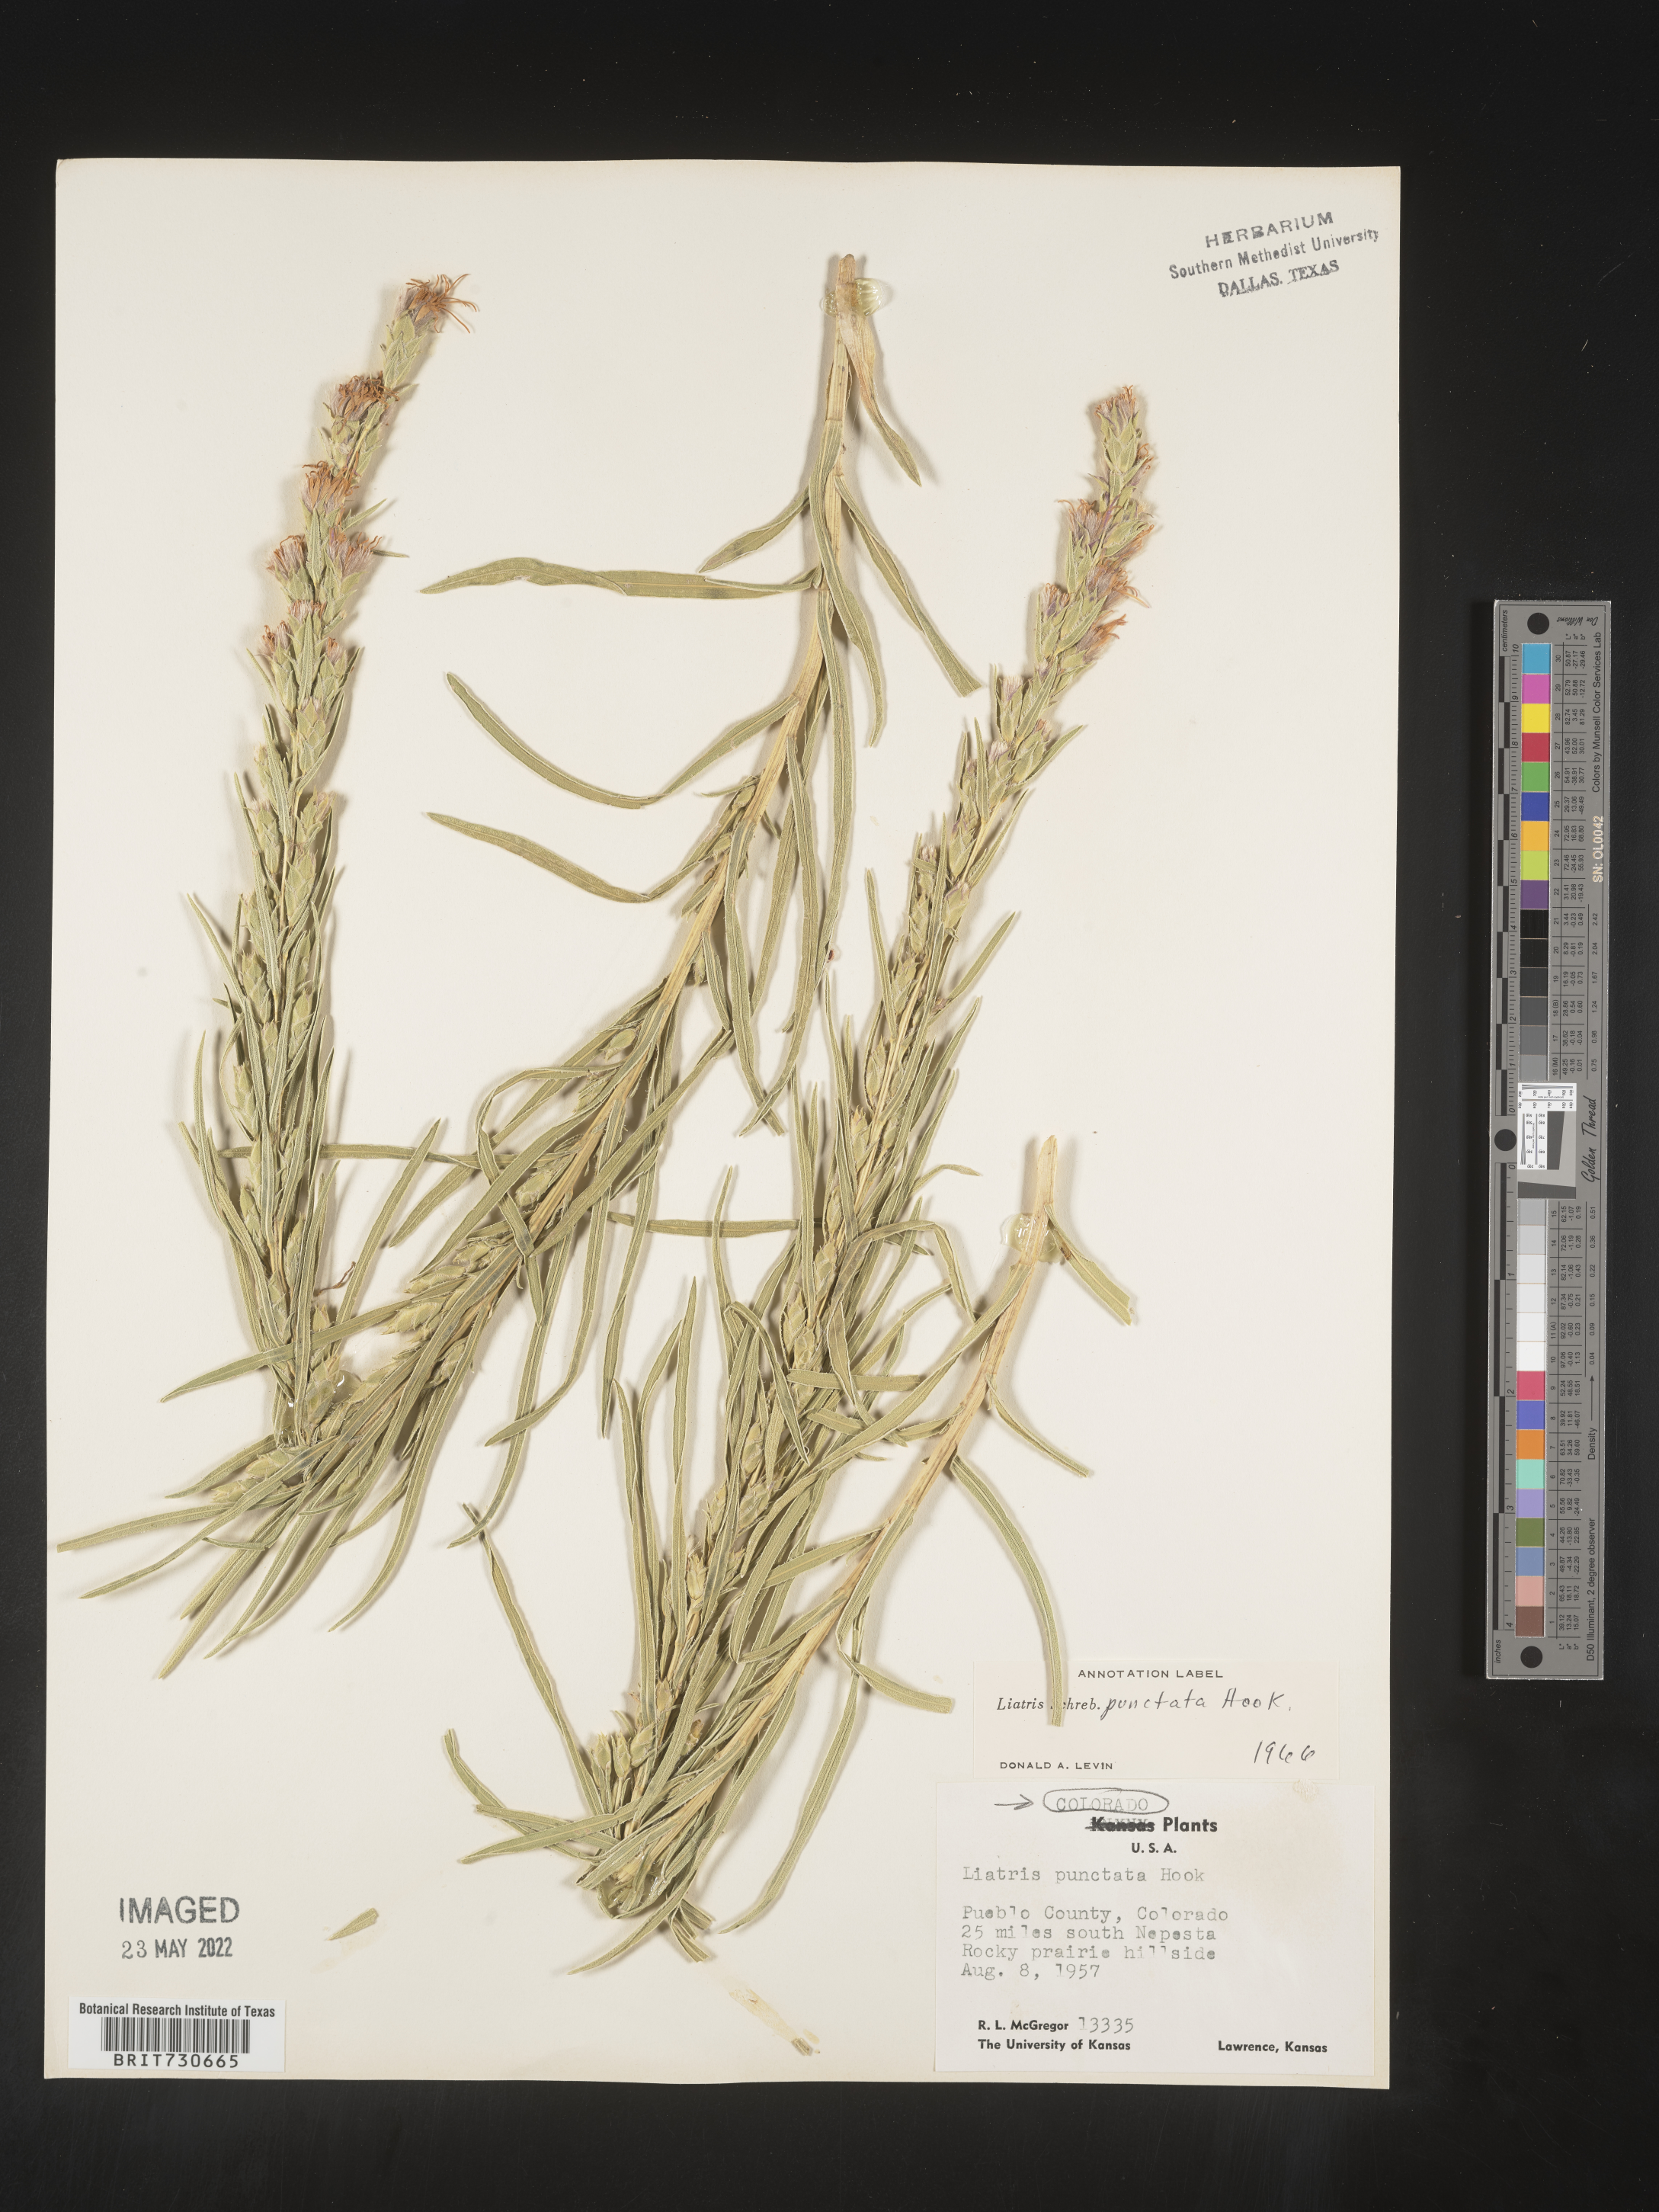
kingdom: Plantae
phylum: Tracheophyta
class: Magnoliopsida
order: Asterales
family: Asteraceae
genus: Liatris
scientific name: Liatris punctata
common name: Dotted gayfeather
